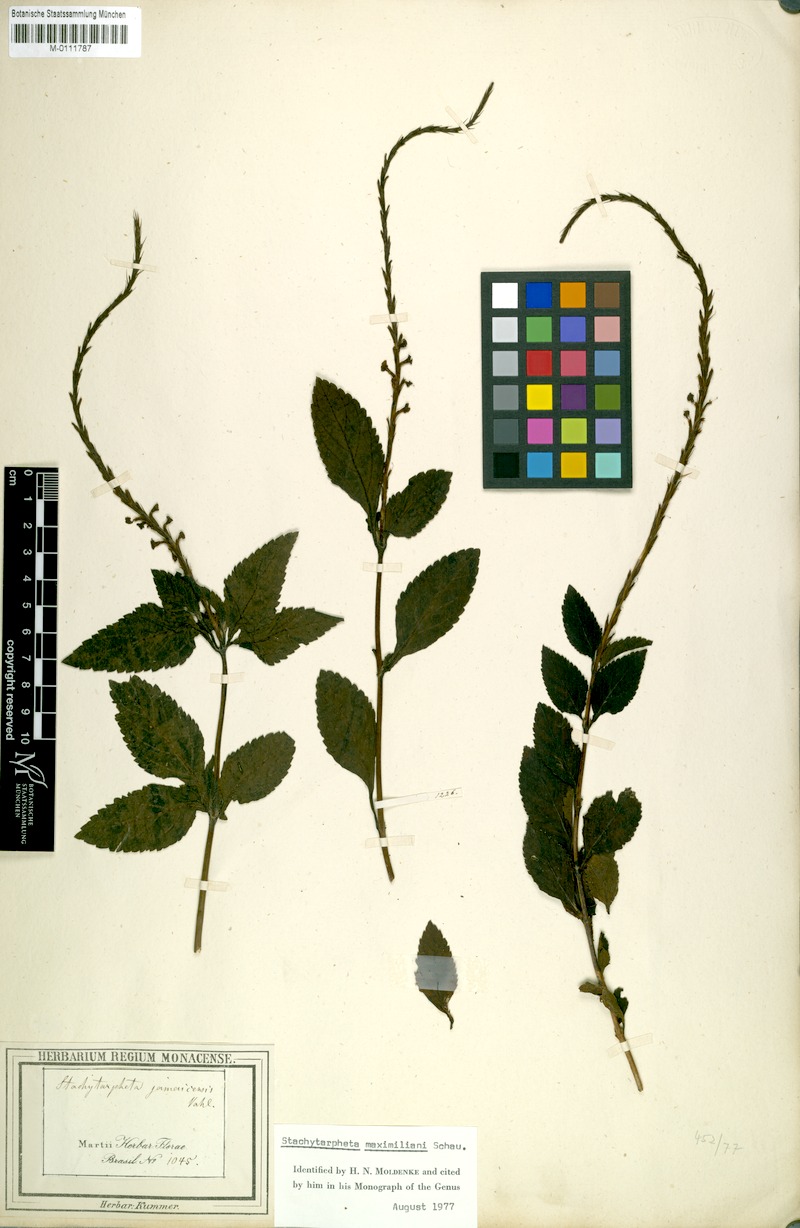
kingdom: Plantae
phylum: Tracheophyta
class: Magnoliopsida
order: Lamiales
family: Verbenaceae
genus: Stachytarpheta
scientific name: Stachytarpheta pachystachya
